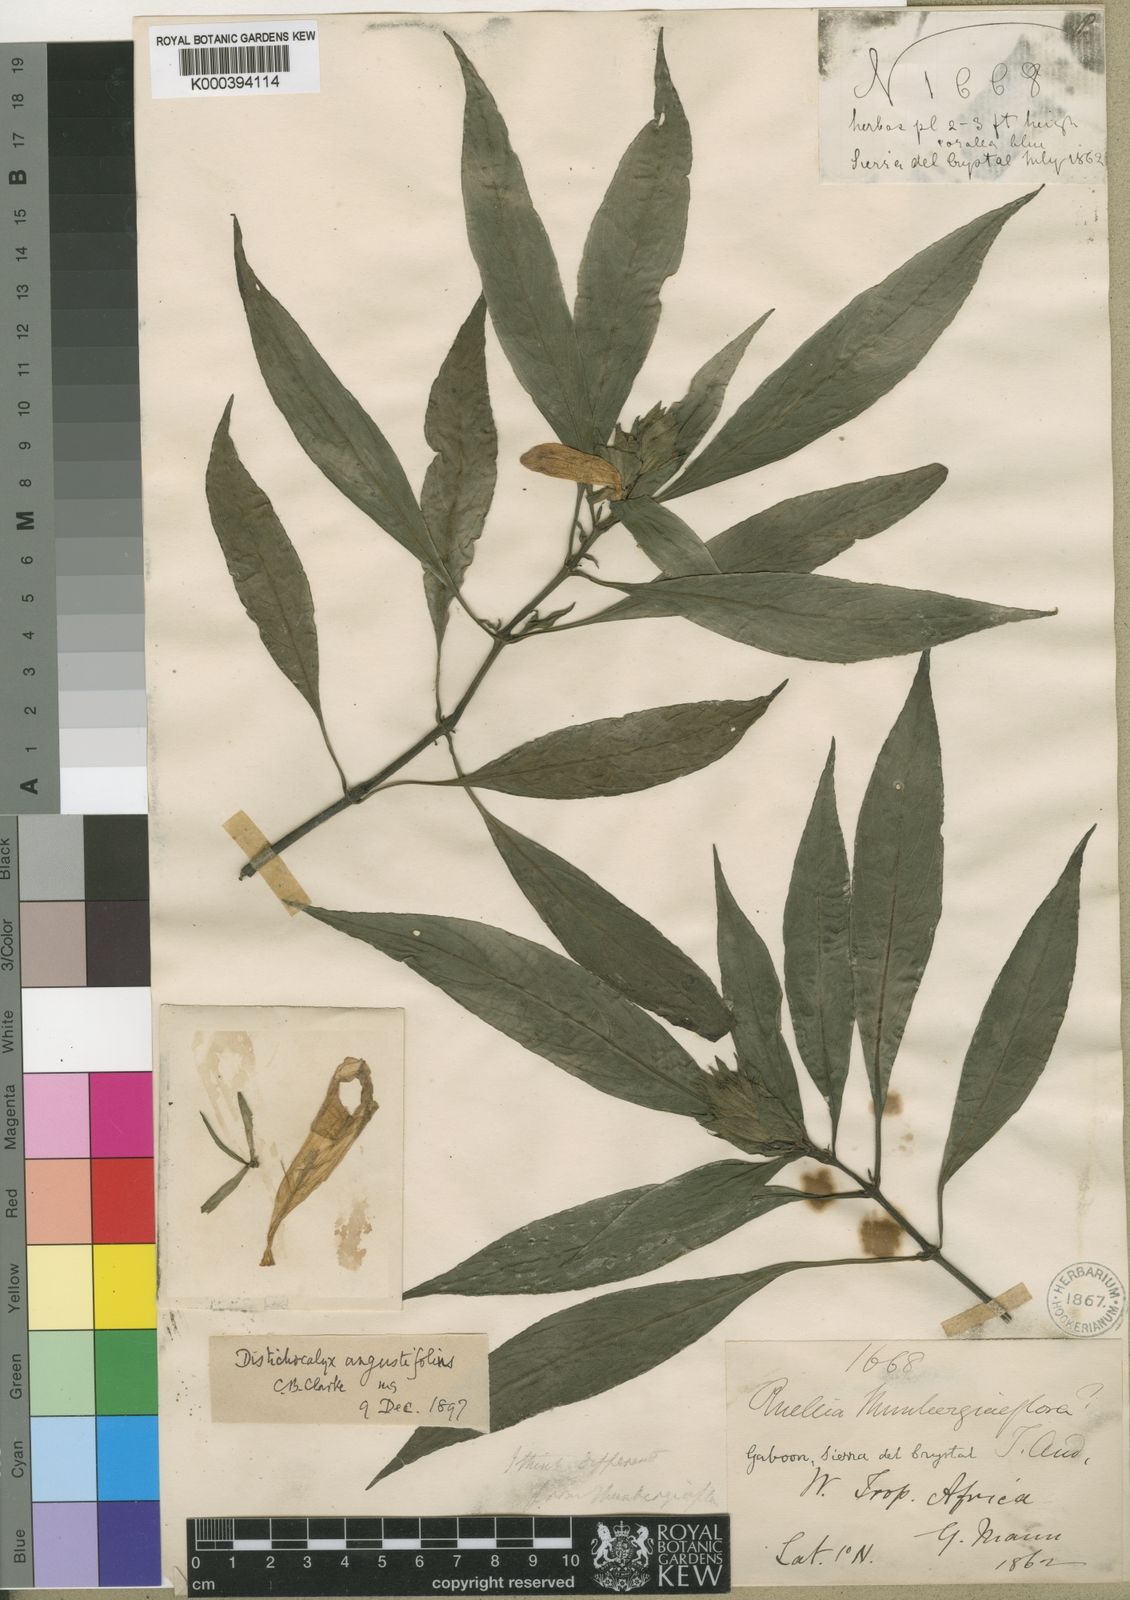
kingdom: Plantae
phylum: Tracheophyta
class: Magnoliopsida
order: Lamiales
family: Acanthaceae
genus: Dischistocalyx
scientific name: Dischistocalyx hirsutus
